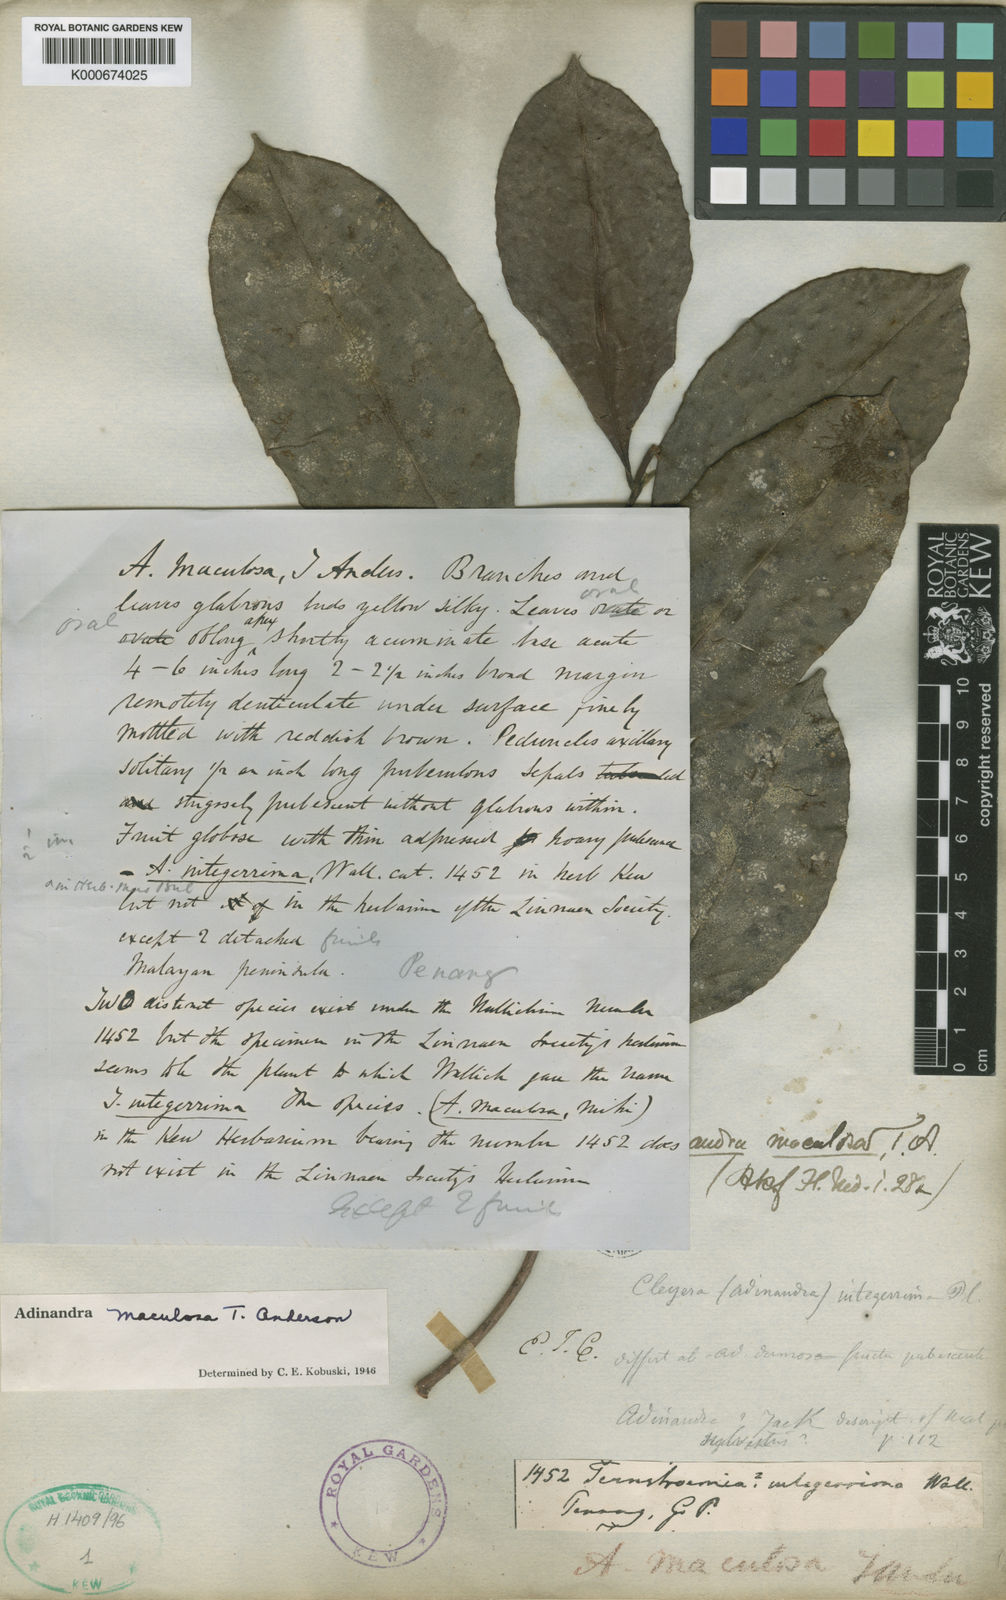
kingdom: Plantae
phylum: Tracheophyta
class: Magnoliopsida
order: Ericales
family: Pentaphylacaceae
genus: Adinandra
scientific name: Adinandra
